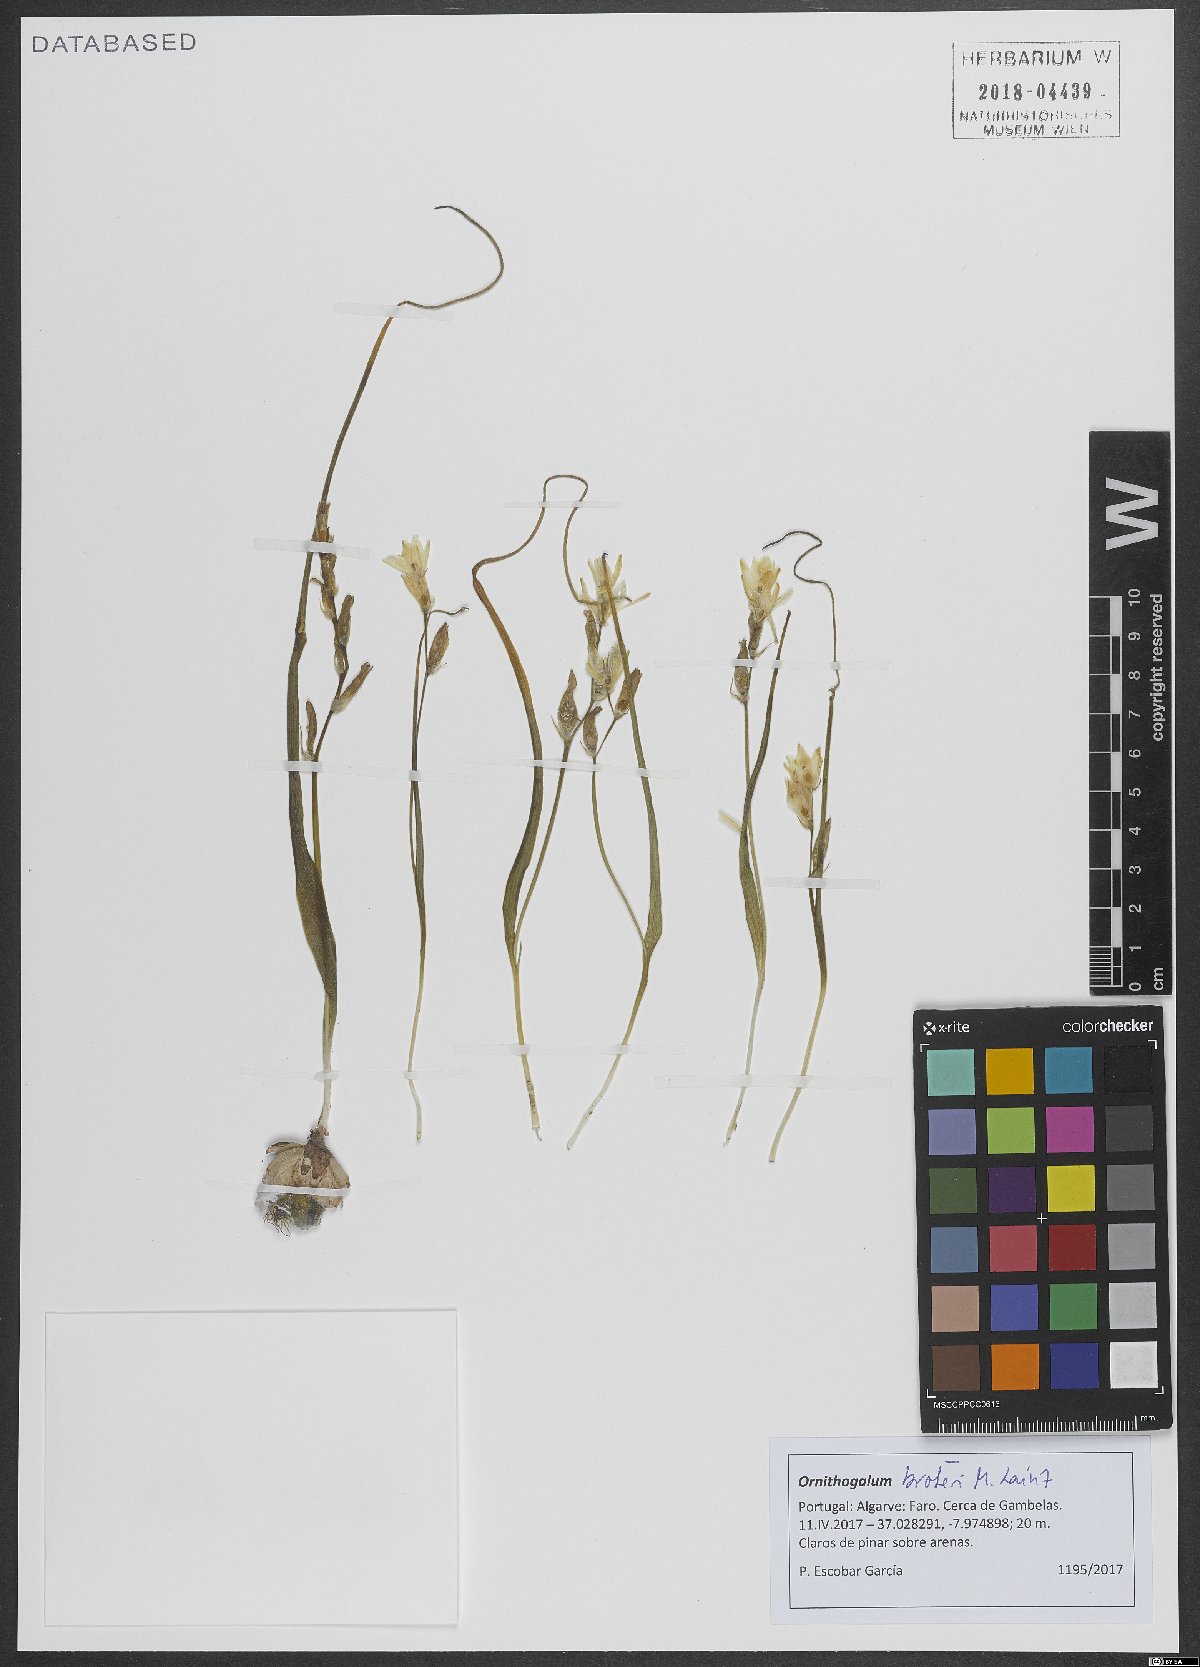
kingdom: Plantae
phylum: Tracheophyta
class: Liliopsida
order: Asparagales
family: Asparagaceae
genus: Ornithogalum
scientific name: Ornithogalum broteroi
